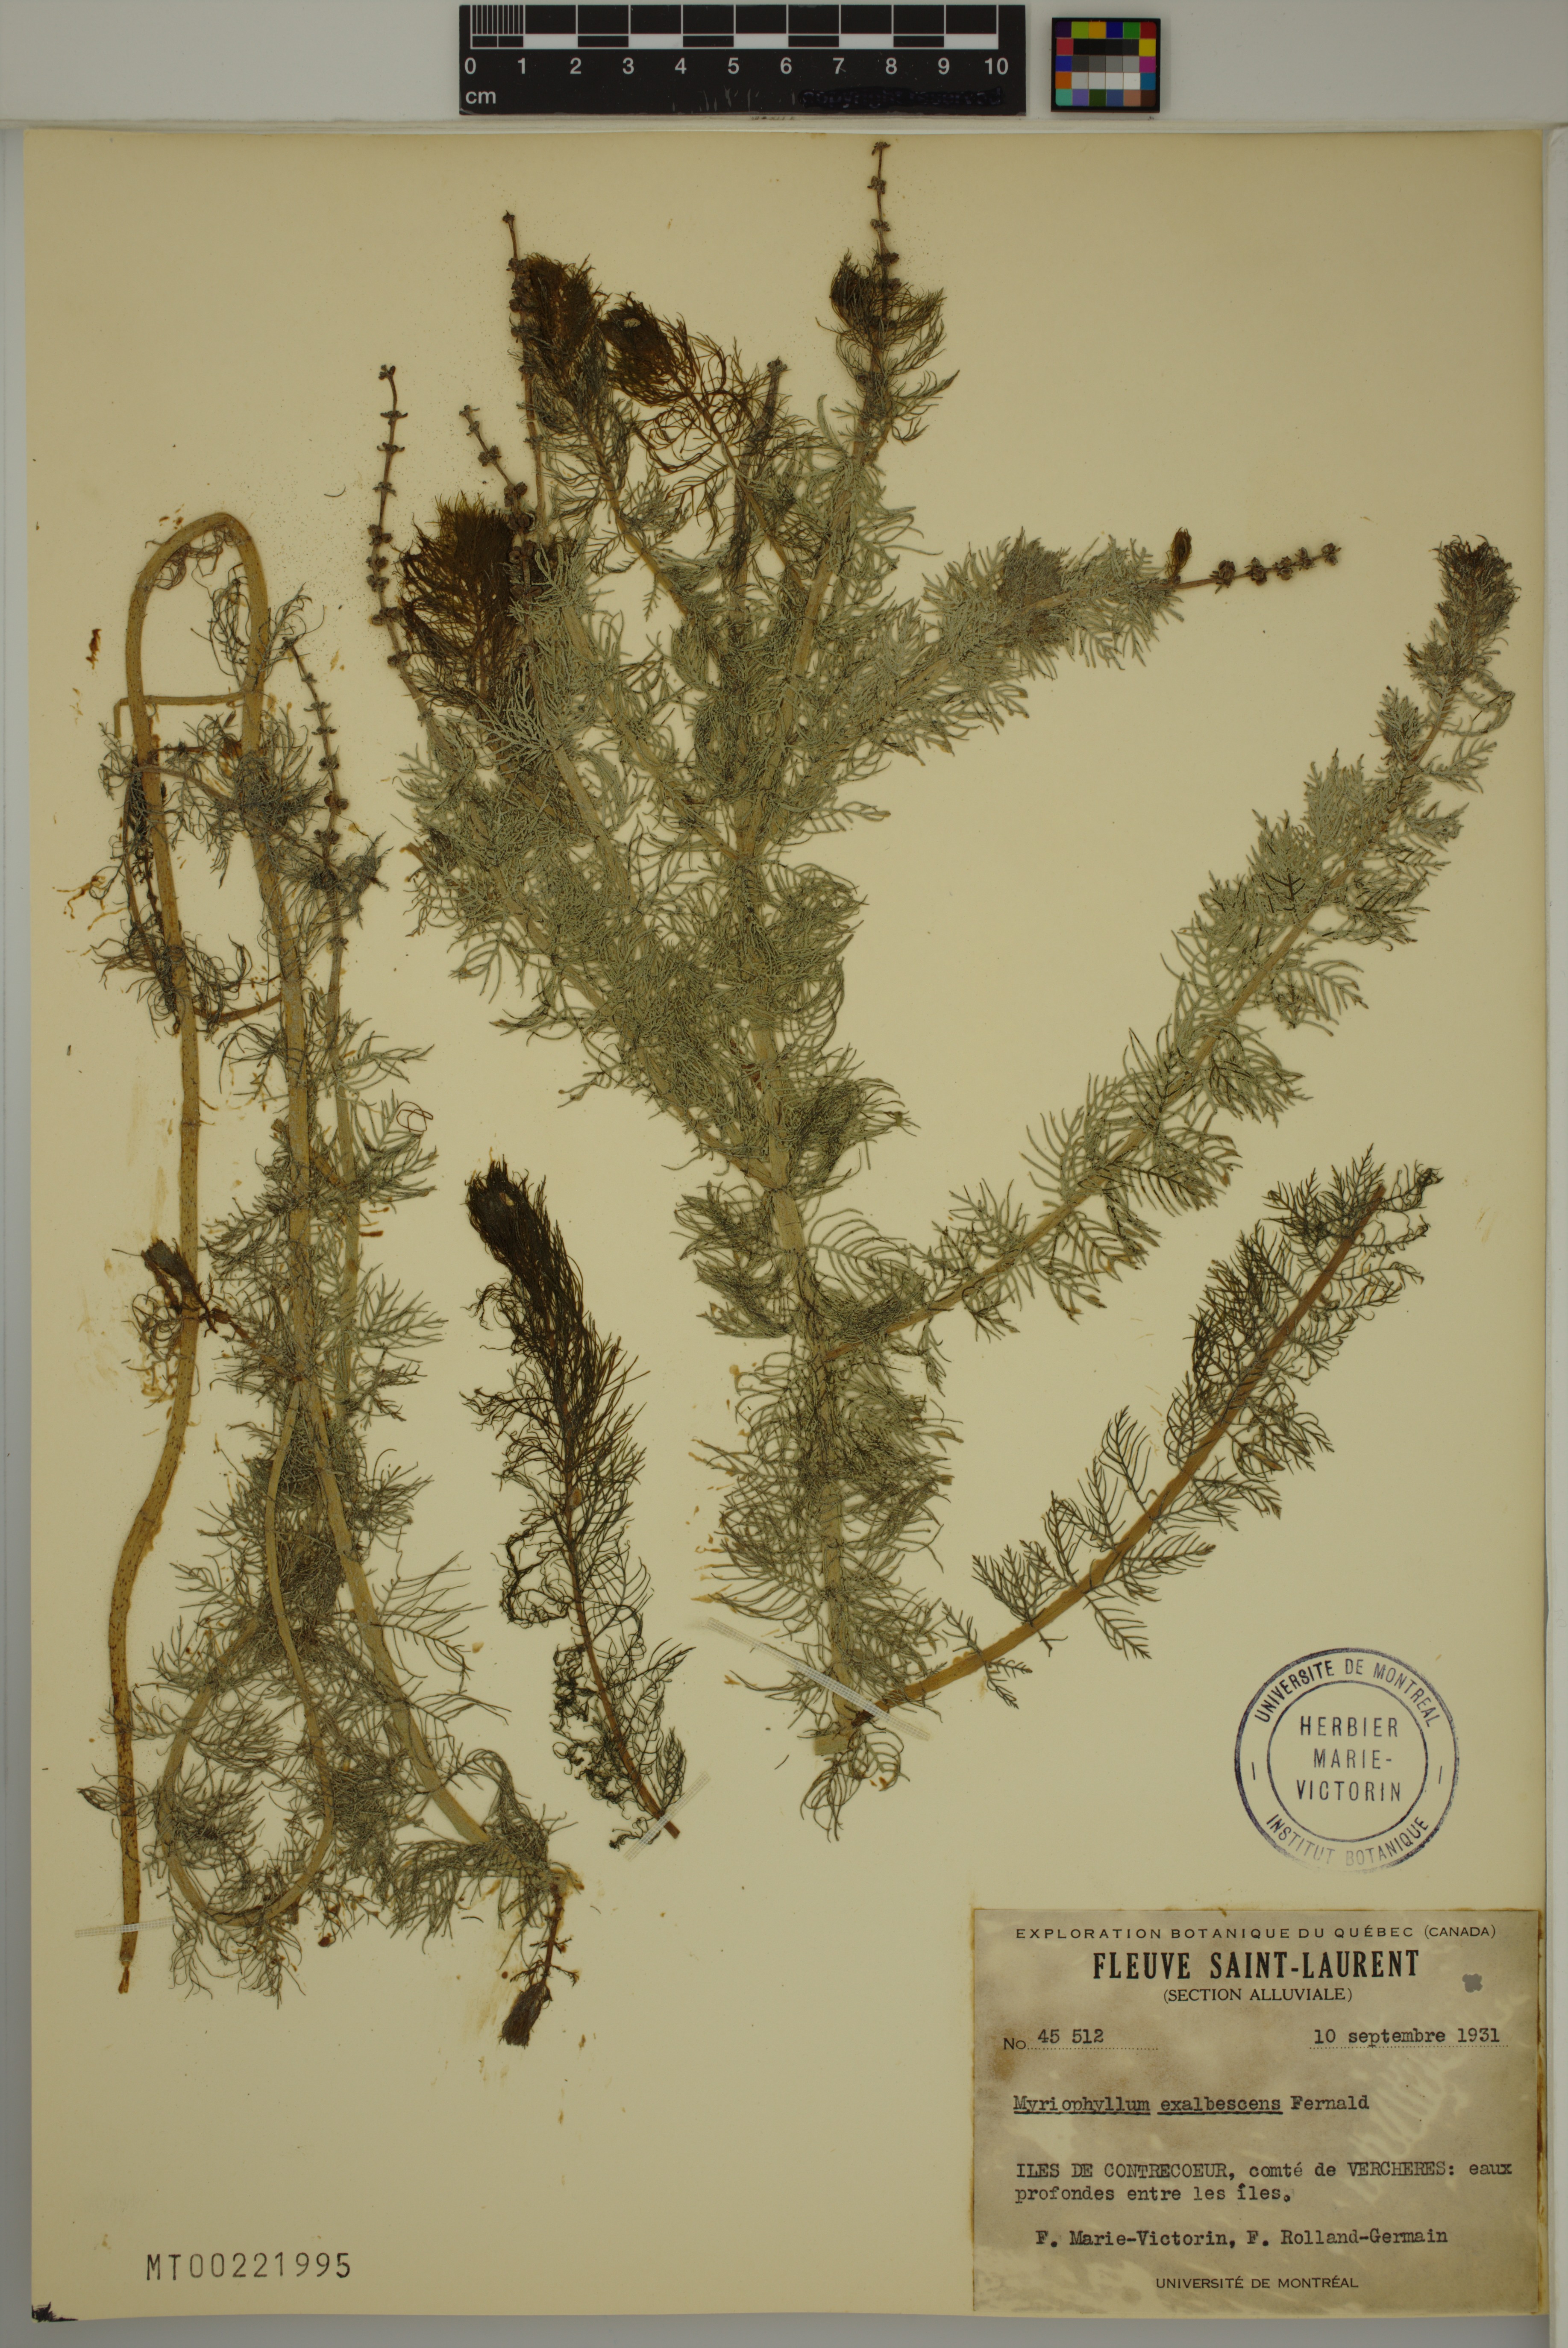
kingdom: Plantae
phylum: Tracheophyta
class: Magnoliopsida
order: Saxifragales
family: Haloragaceae
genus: Myriophyllum
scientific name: Myriophyllum sibiricum
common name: Siberian water-milfoil
